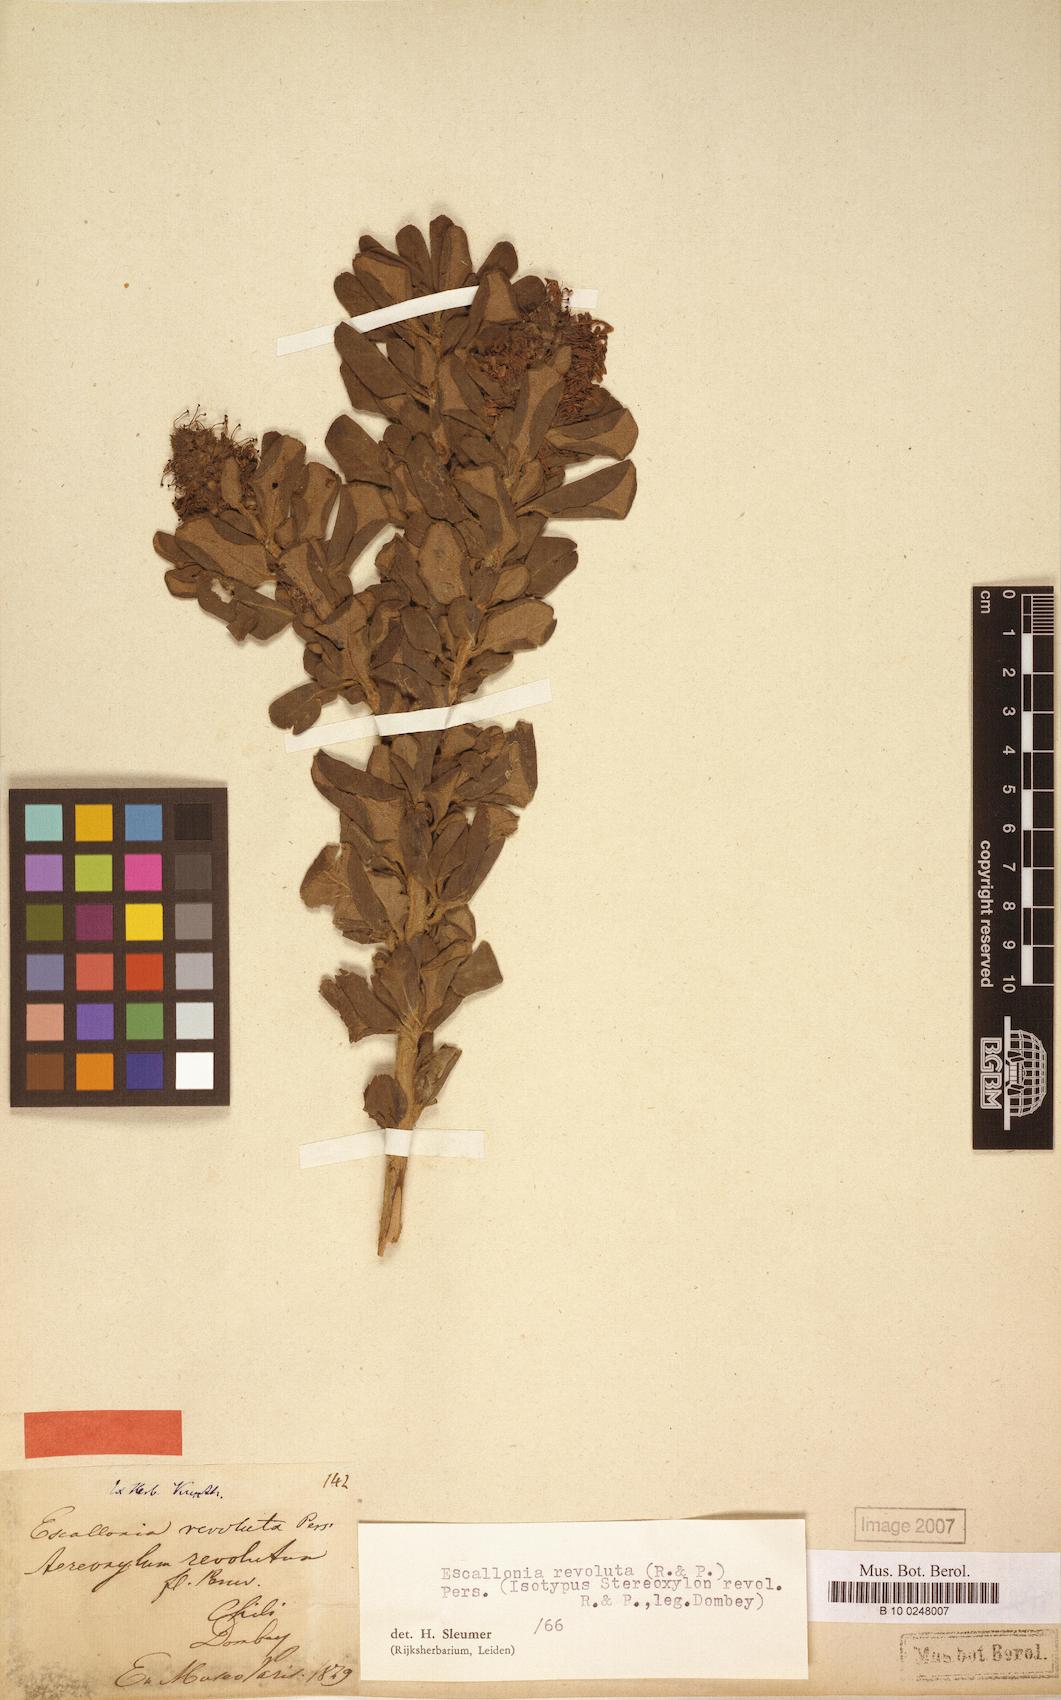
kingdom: Plantae
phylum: Tracheophyta
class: Magnoliopsida
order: Escalloniales
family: Escalloniaceae
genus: Escallonia
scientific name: Escallonia revoluta
